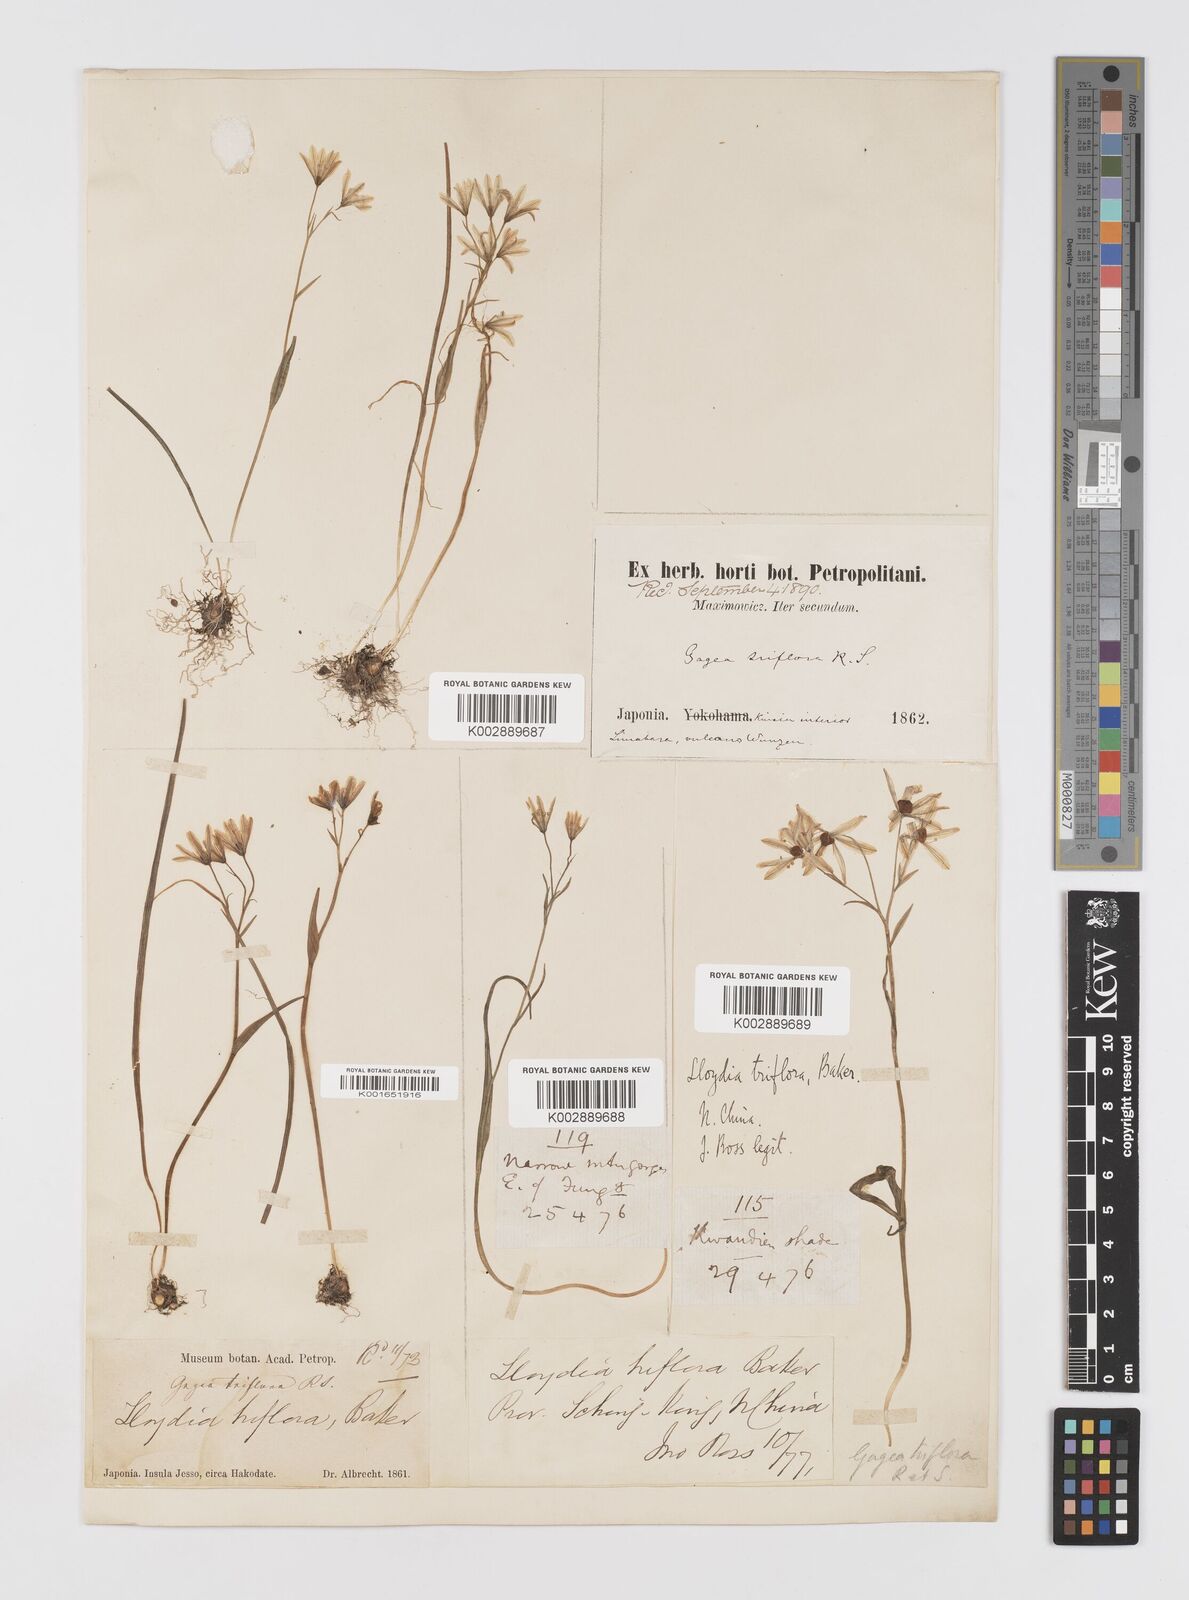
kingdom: Plantae
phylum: Tracheophyta
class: Liliopsida
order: Liliales
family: Liliaceae
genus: Gagea
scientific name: Gagea triflora
